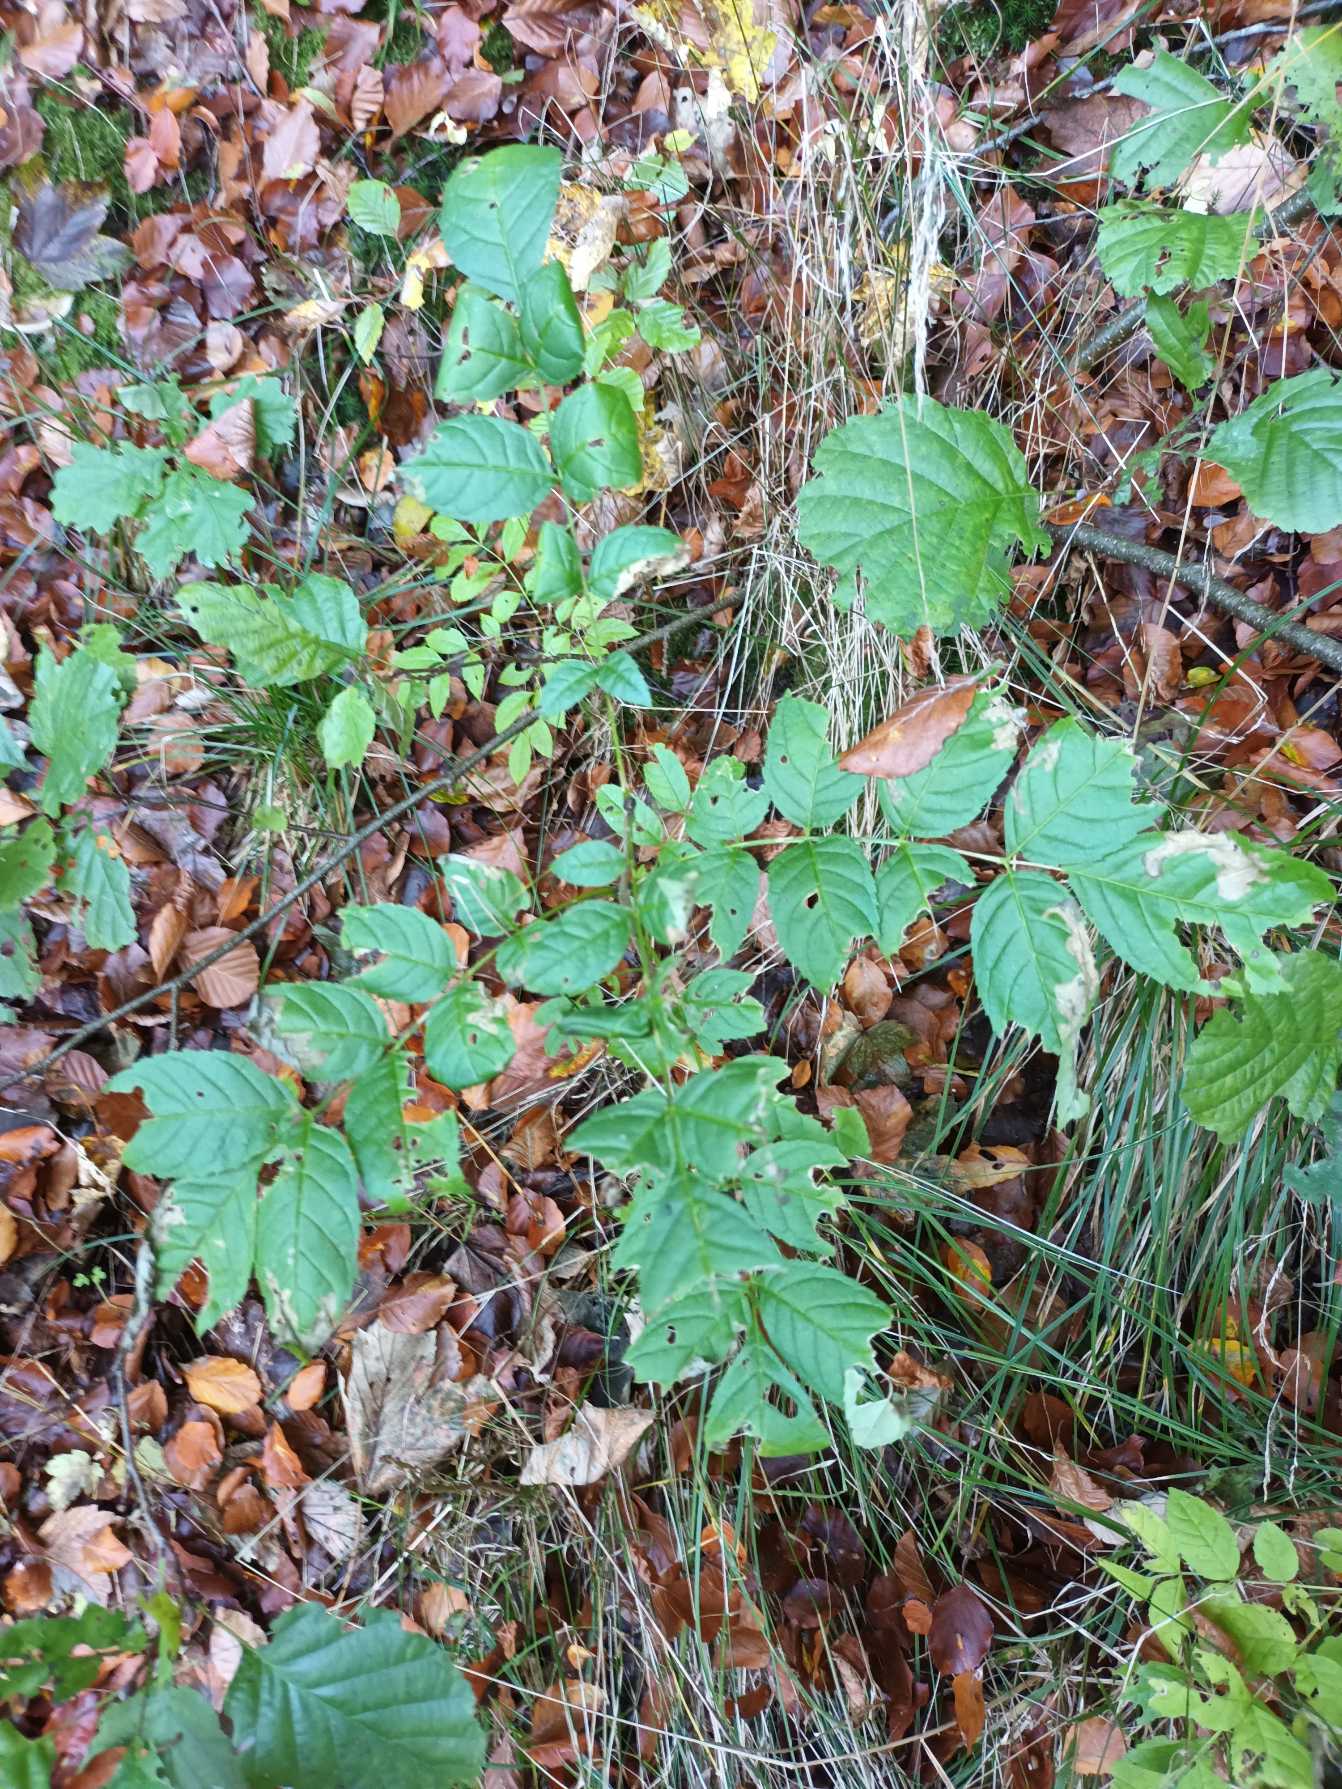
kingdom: Plantae
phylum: Tracheophyta
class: Magnoliopsida
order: Lamiales
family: Oleaceae
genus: Fraxinus
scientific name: Fraxinus excelsior
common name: Ask
